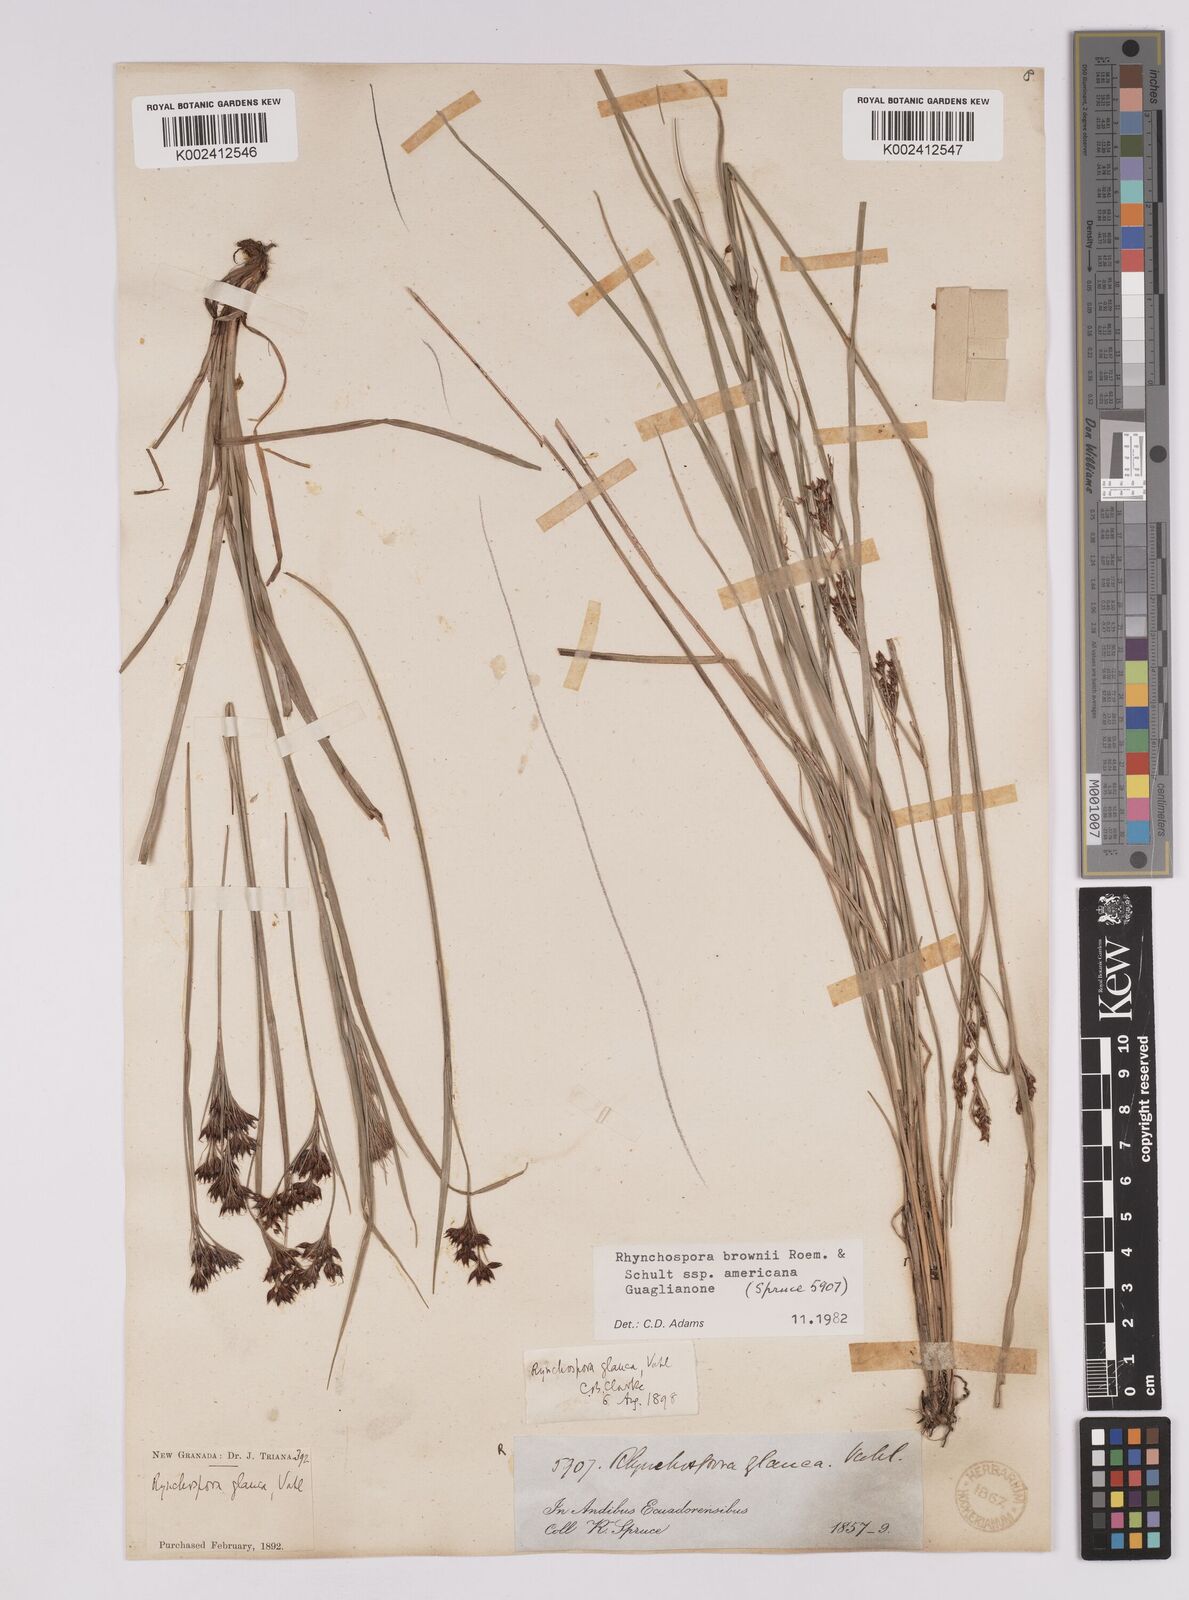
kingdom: Plantae
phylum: Tracheophyta
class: Liliopsida
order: Poales
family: Cyperaceae
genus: Rhynchospora
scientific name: Rhynchospora rugosa
